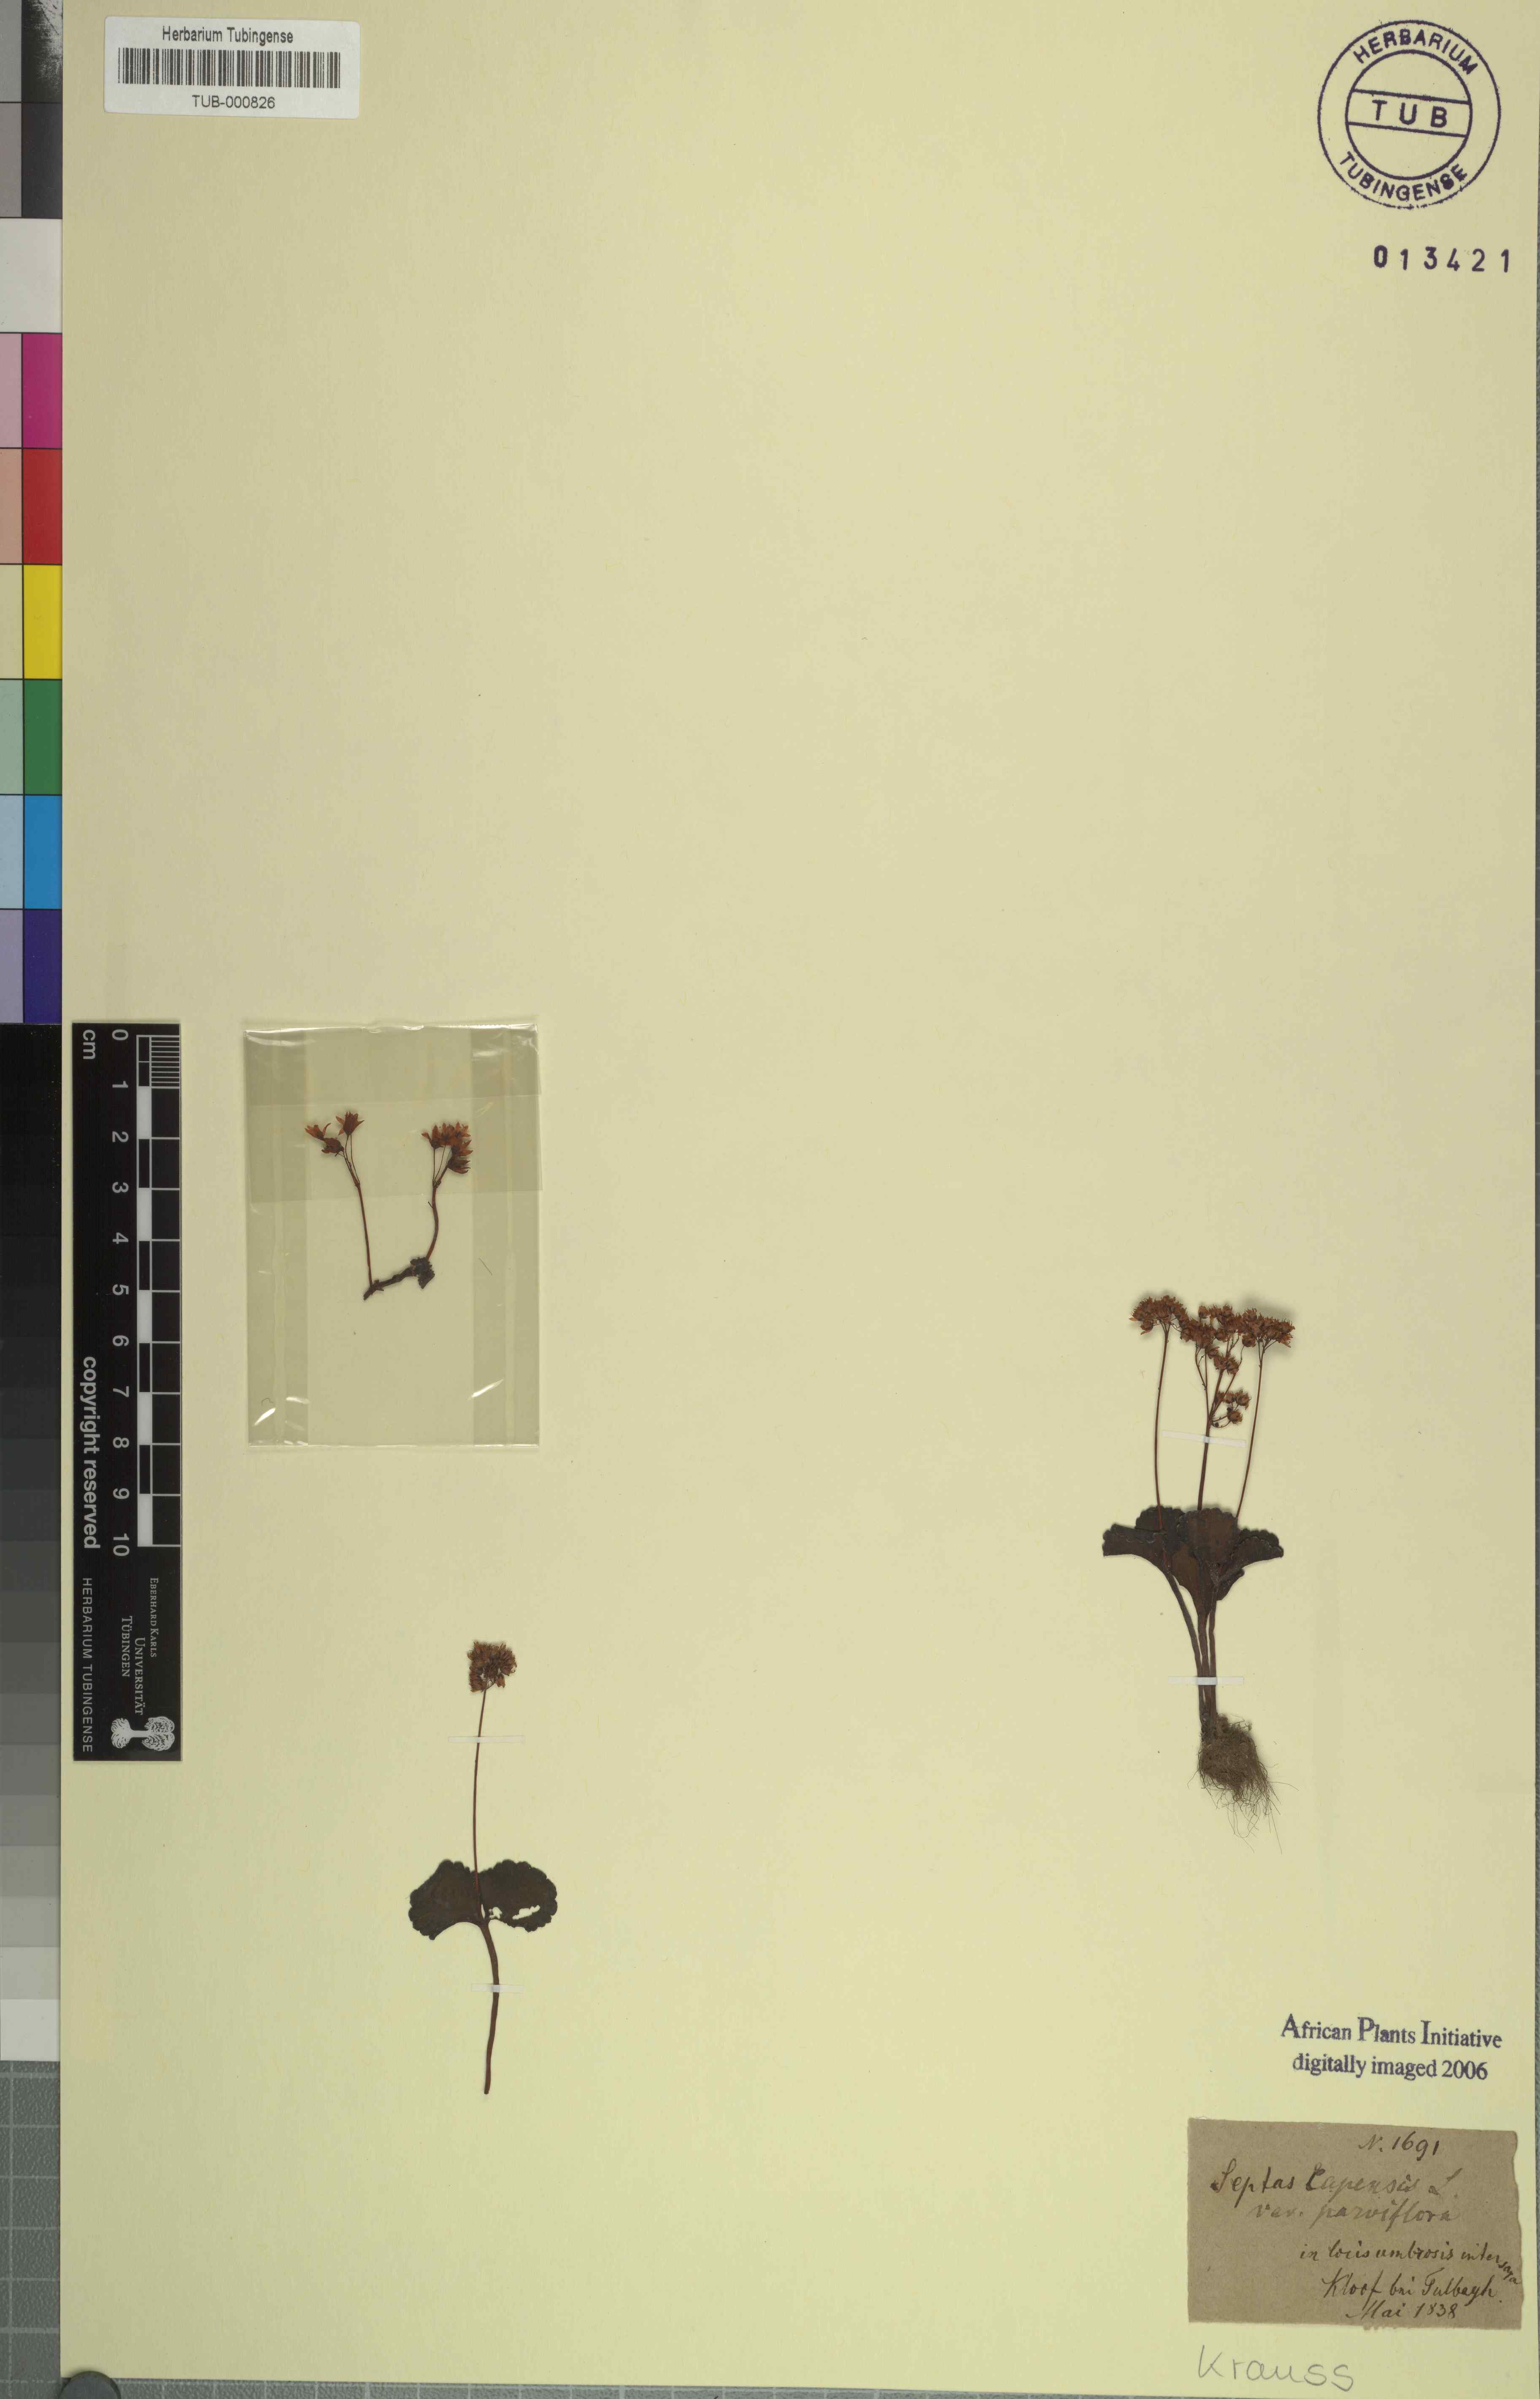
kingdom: Plantae
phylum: Tracheophyta
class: Magnoliopsida
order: Saxifragales
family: Crassulaceae
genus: Crassula
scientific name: Crassula capensis
